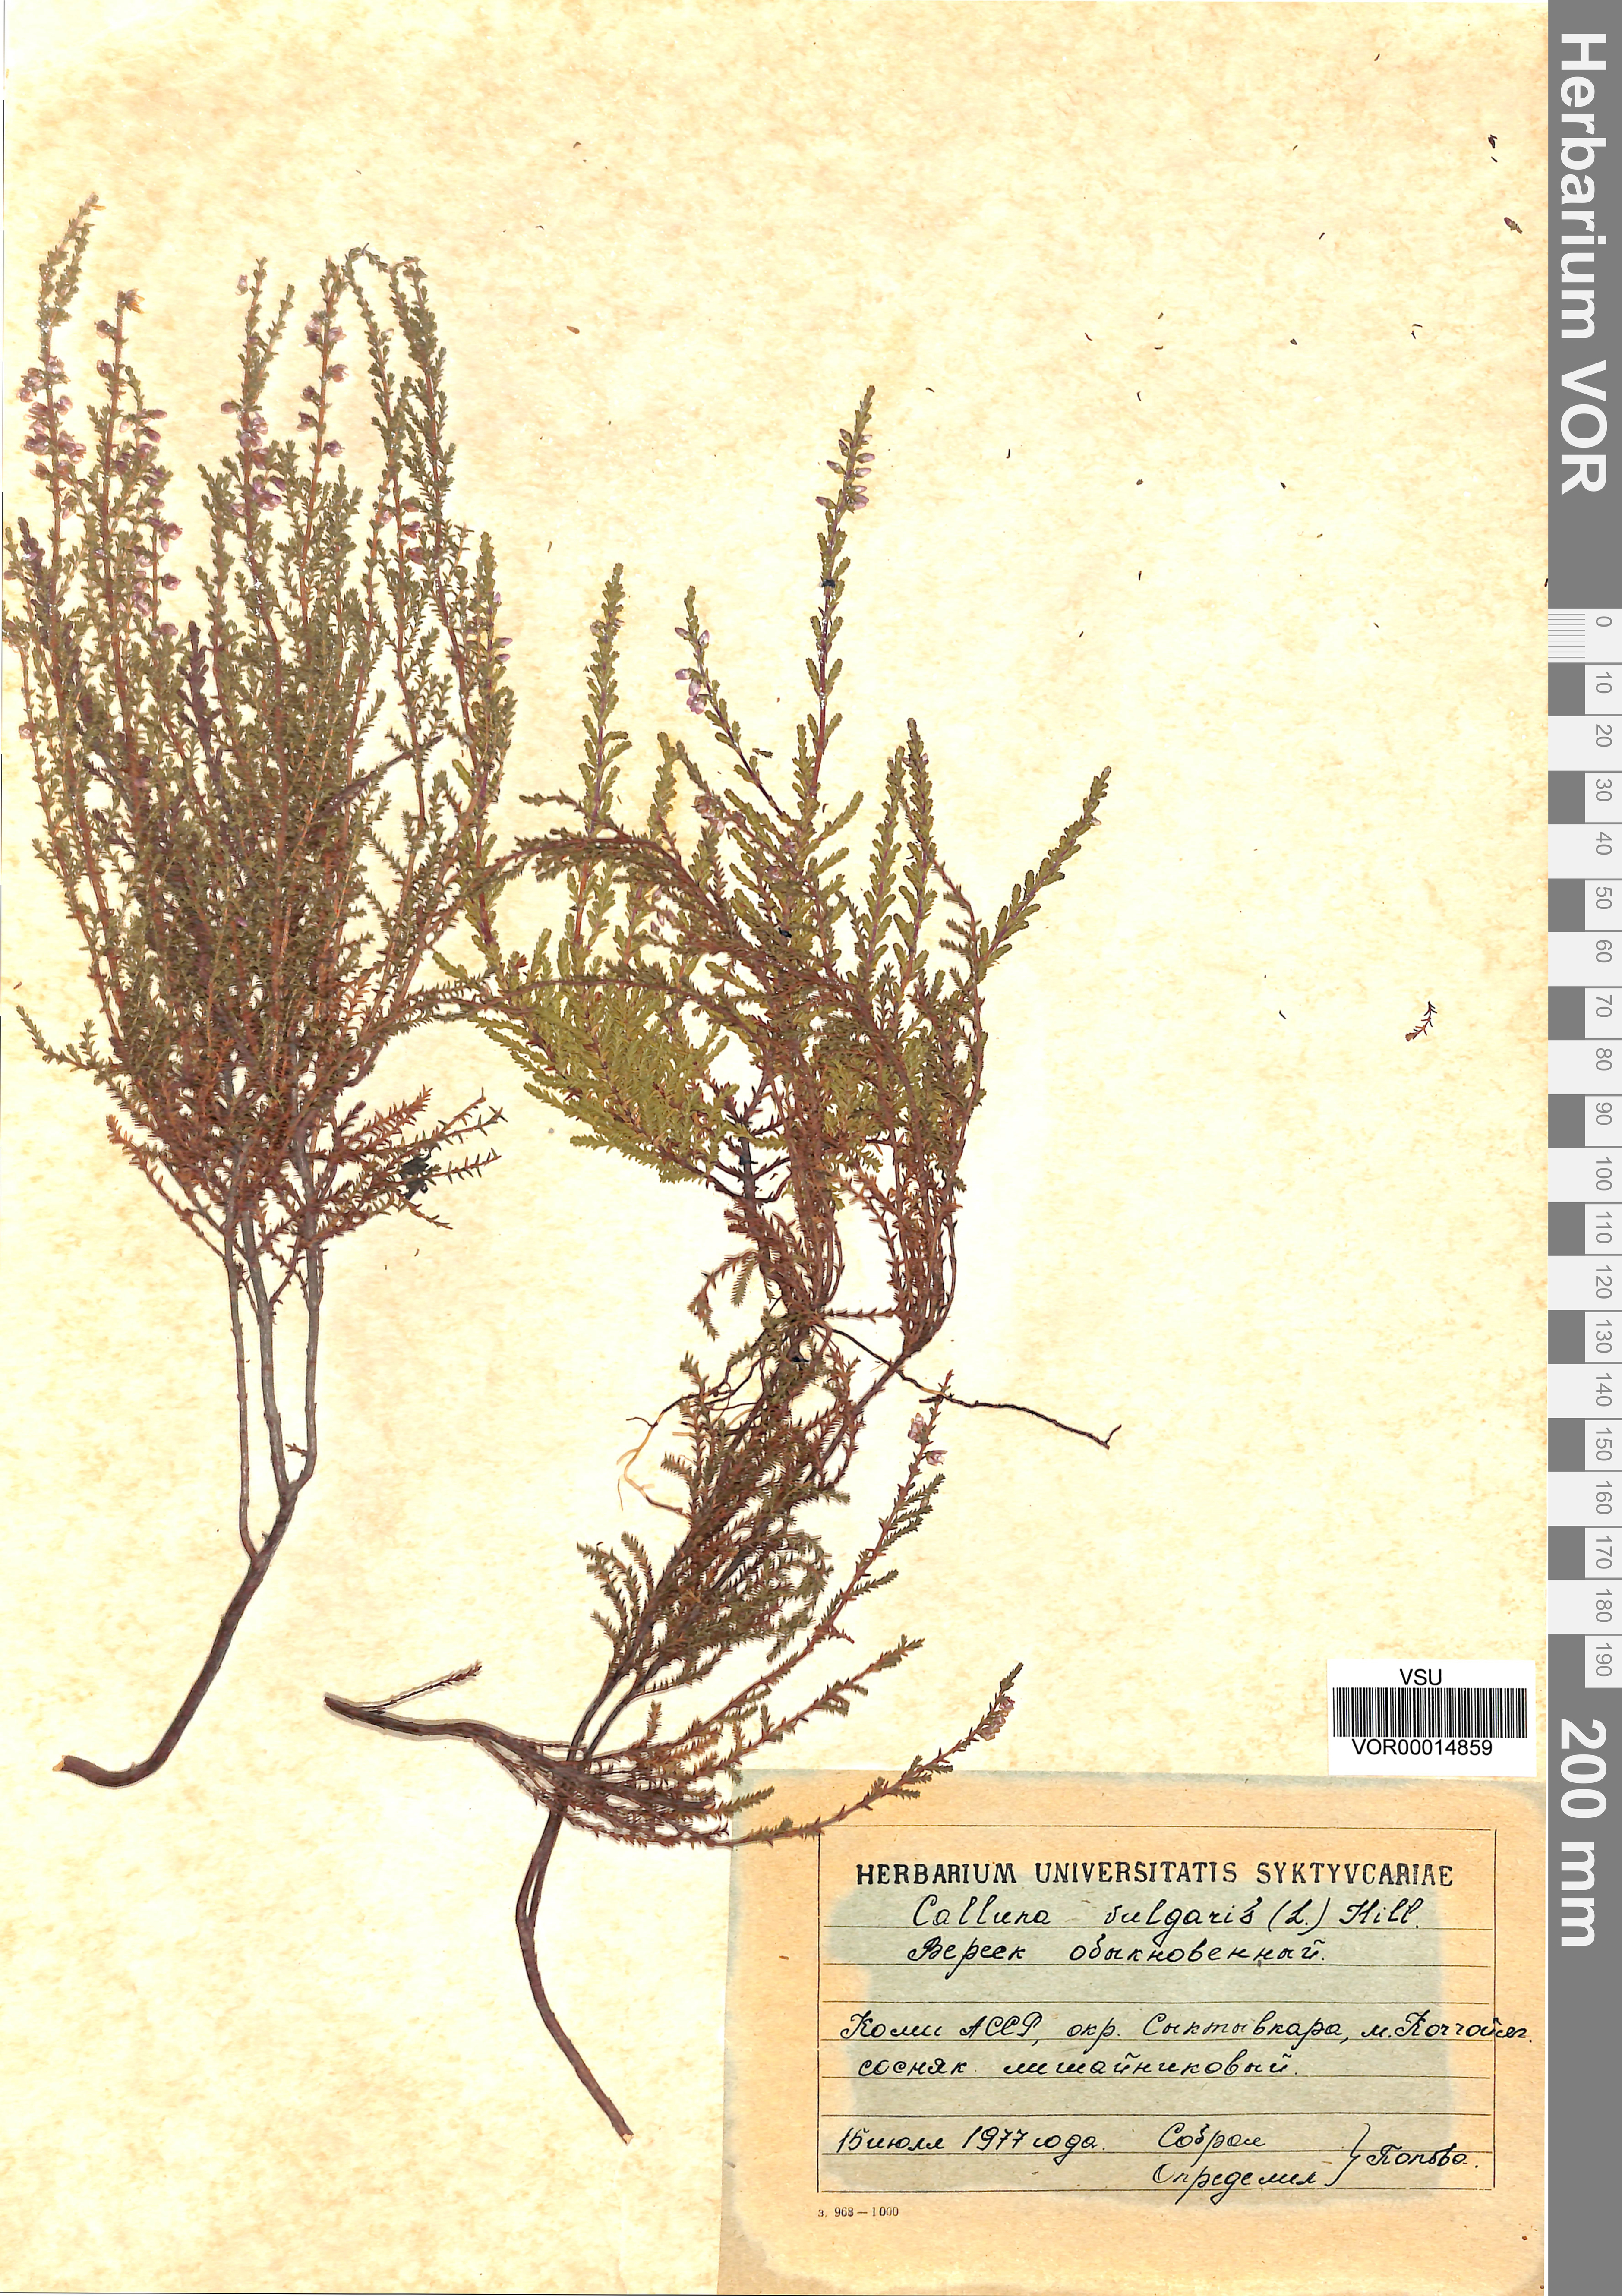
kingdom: Plantae
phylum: Tracheophyta
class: Magnoliopsida
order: Ericales
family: Ericaceae
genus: Calluna
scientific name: Calluna vulgaris
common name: Heather
